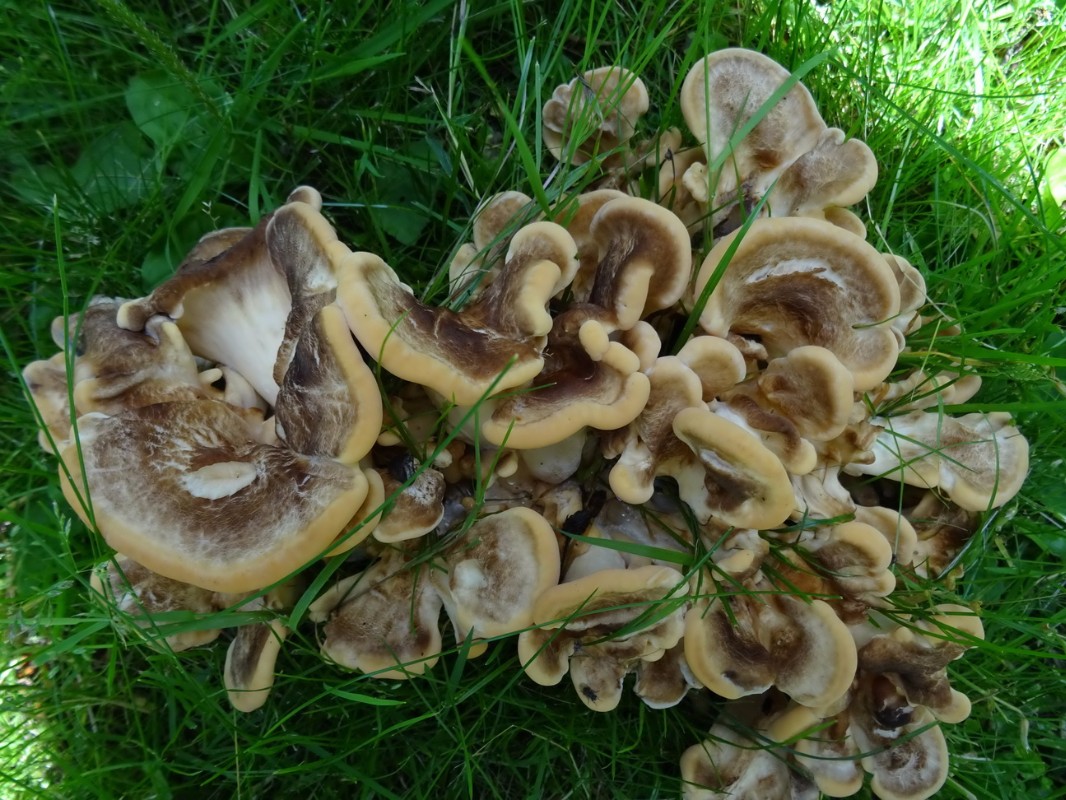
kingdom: Fungi
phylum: Basidiomycota
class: Agaricomycetes
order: Polyporales
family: Meripilaceae
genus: Meripilus
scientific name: Meripilus giganteus
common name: kæmpeporesvamp
